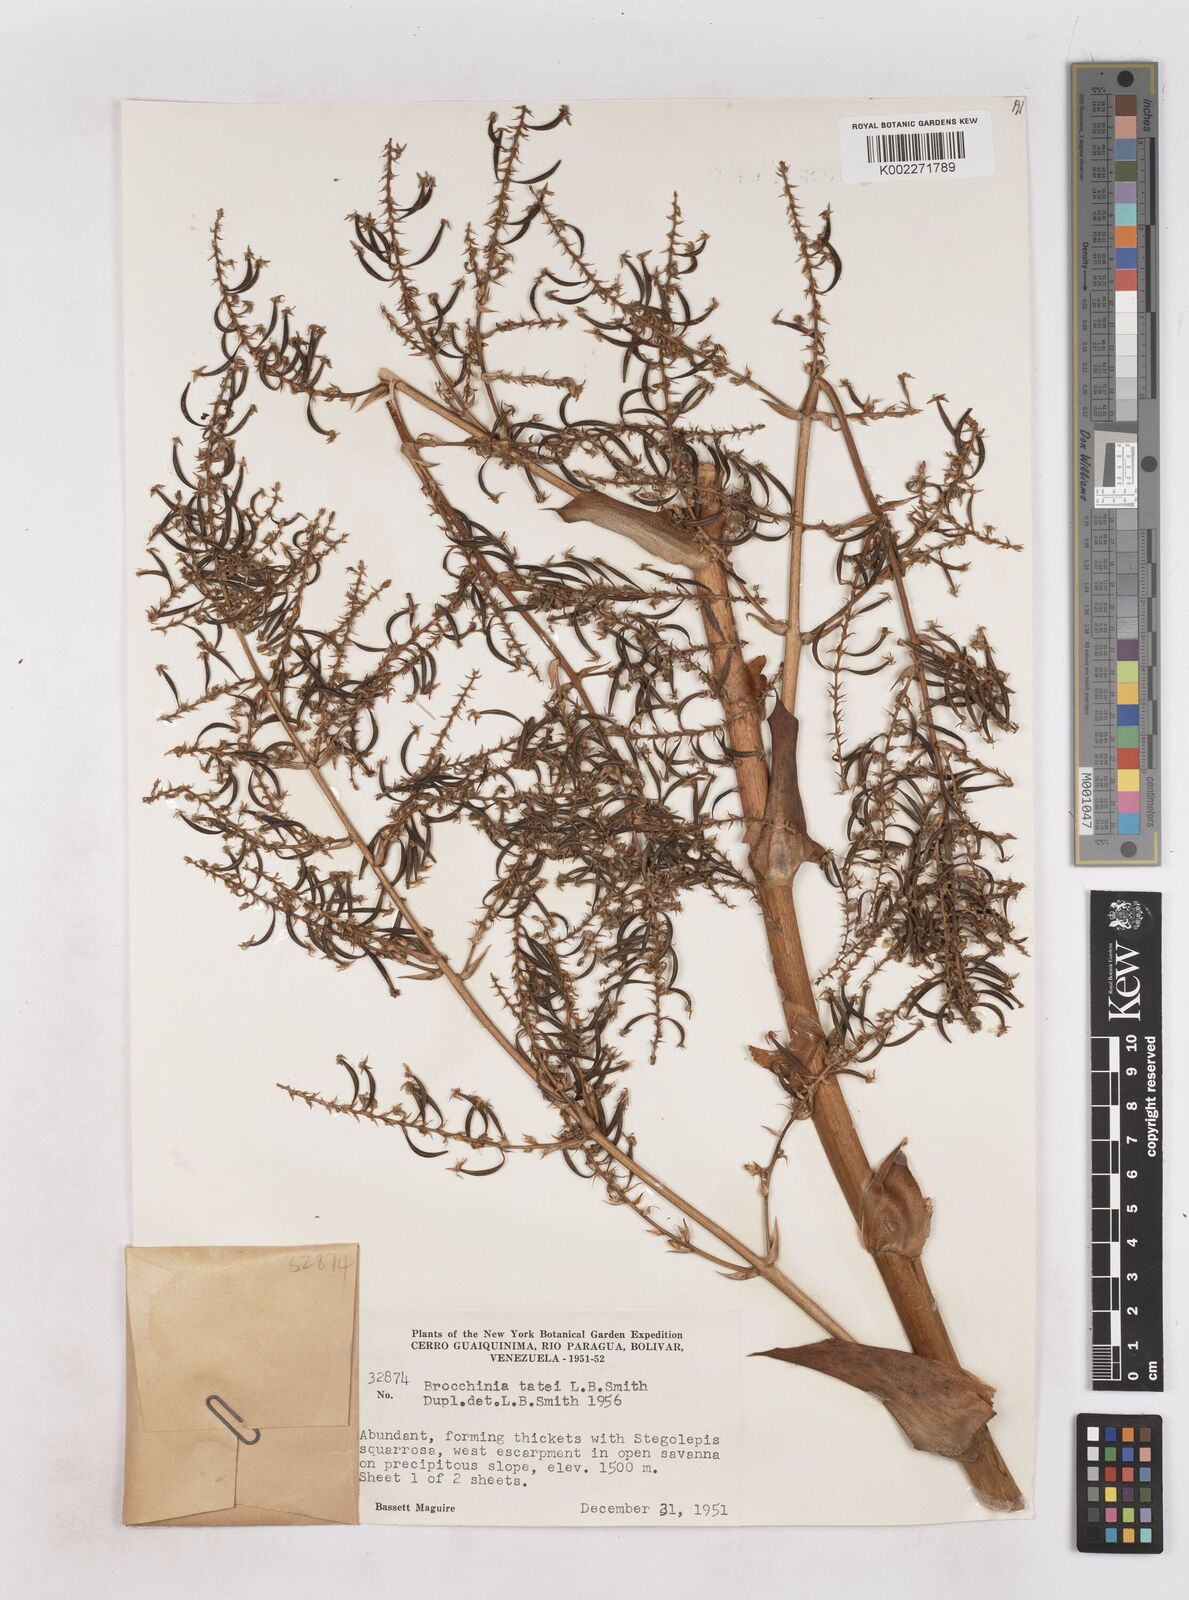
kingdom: Plantae
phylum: Tracheophyta
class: Liliopsida
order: Poales
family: Bromeliaceae
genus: Brocchinia
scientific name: Brocchinia tatei
